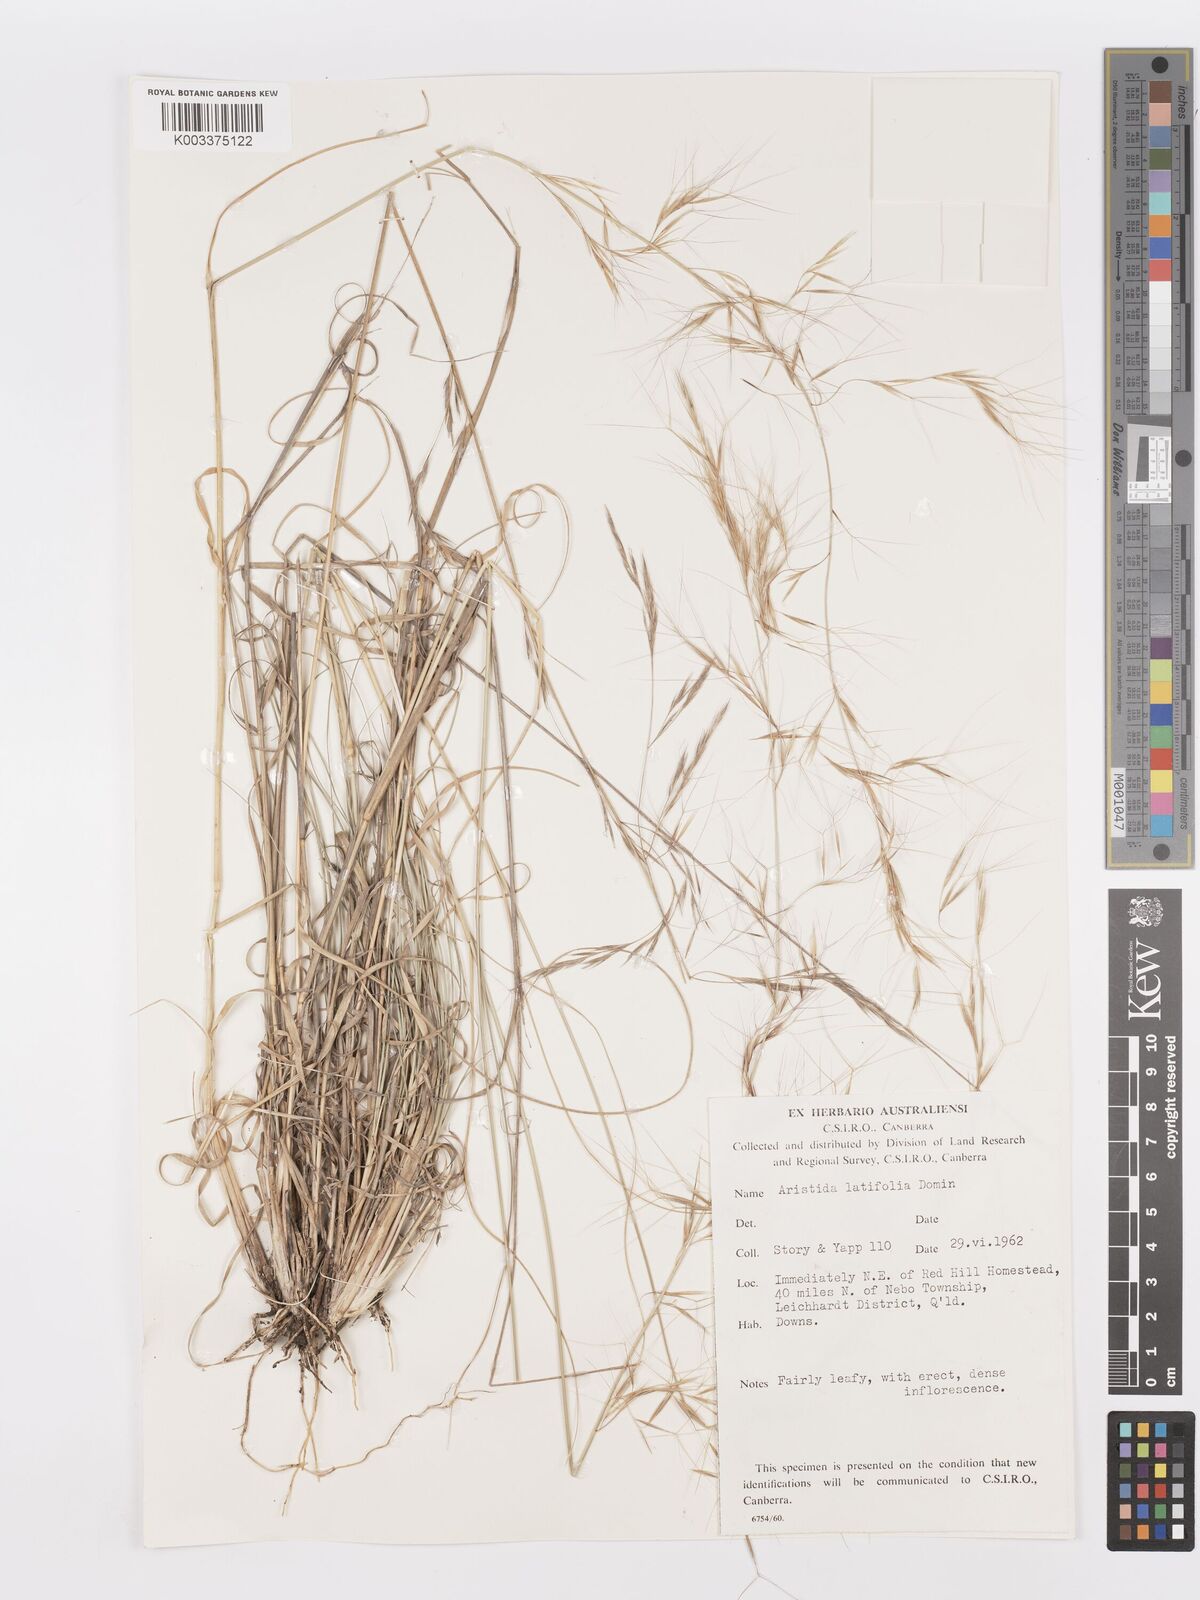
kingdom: Plantae
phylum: Tracheophyta
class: Liliopsida
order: Poales
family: Poaceae
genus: Aristida
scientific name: Aristida latifolia
